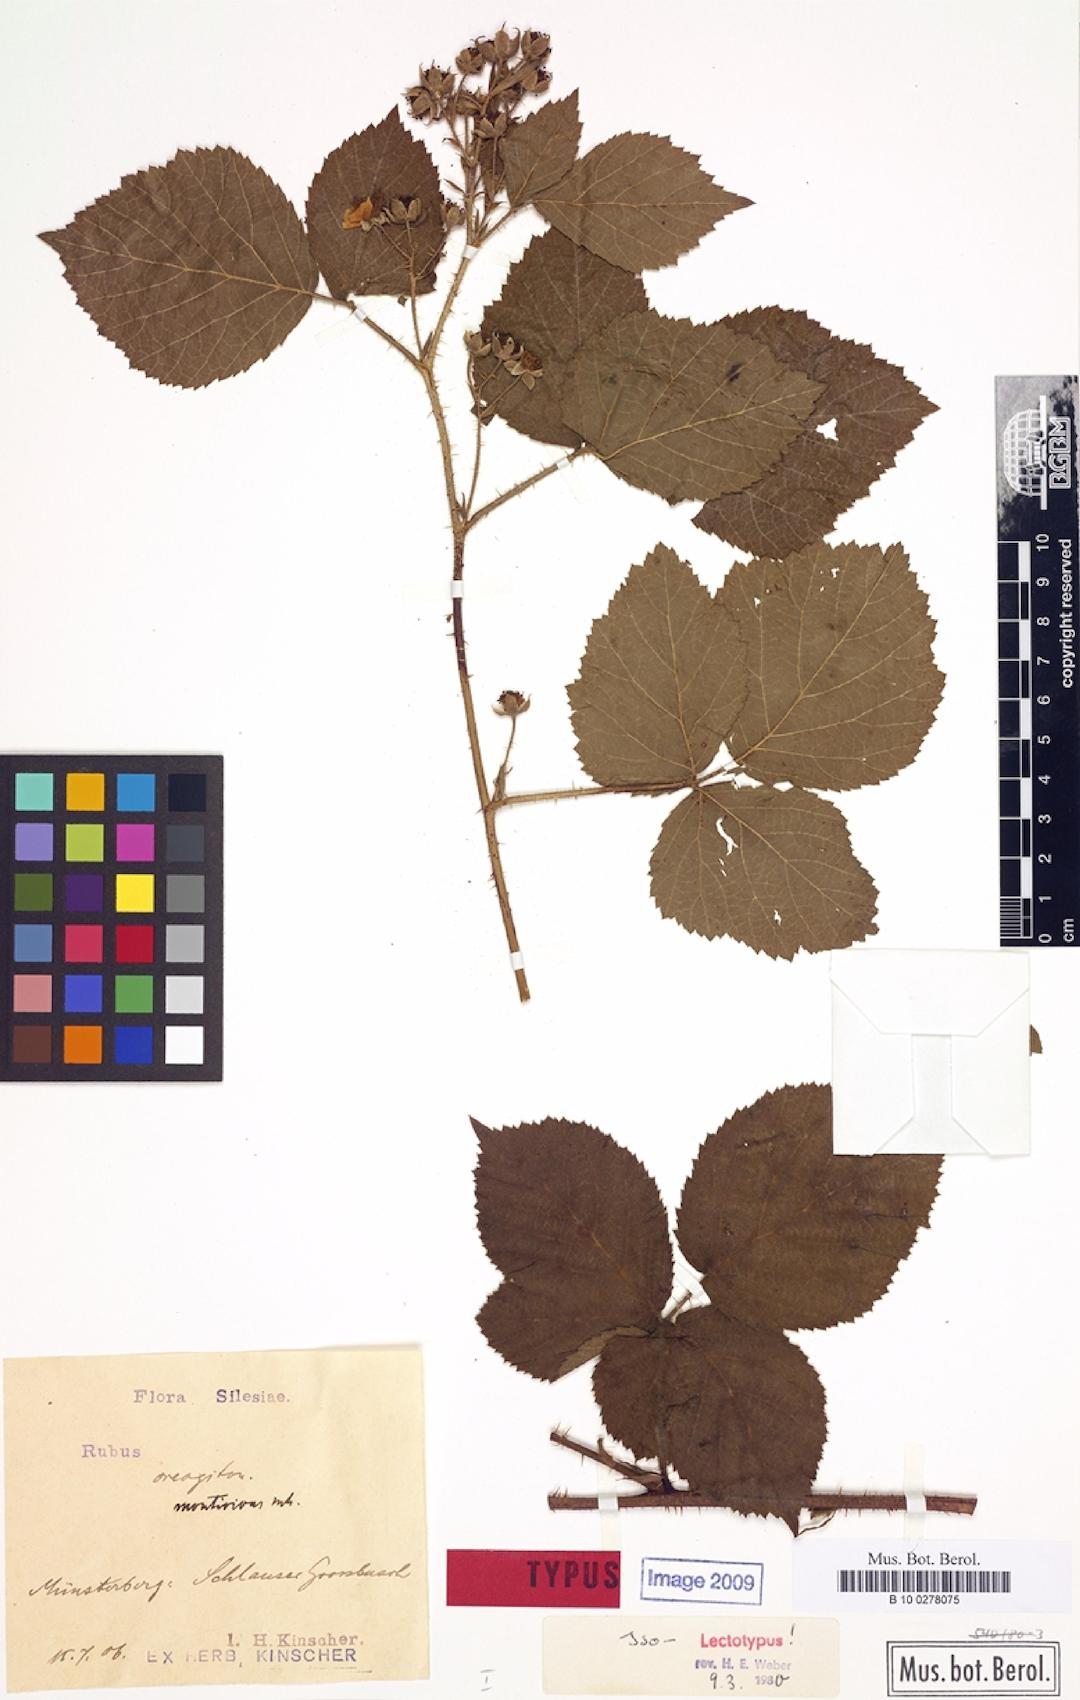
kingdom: Plantae
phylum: Tracheophyta
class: Magnoliopsida
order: Rosales
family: Rosaceae
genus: Rubus
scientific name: Rubus dollnensis
